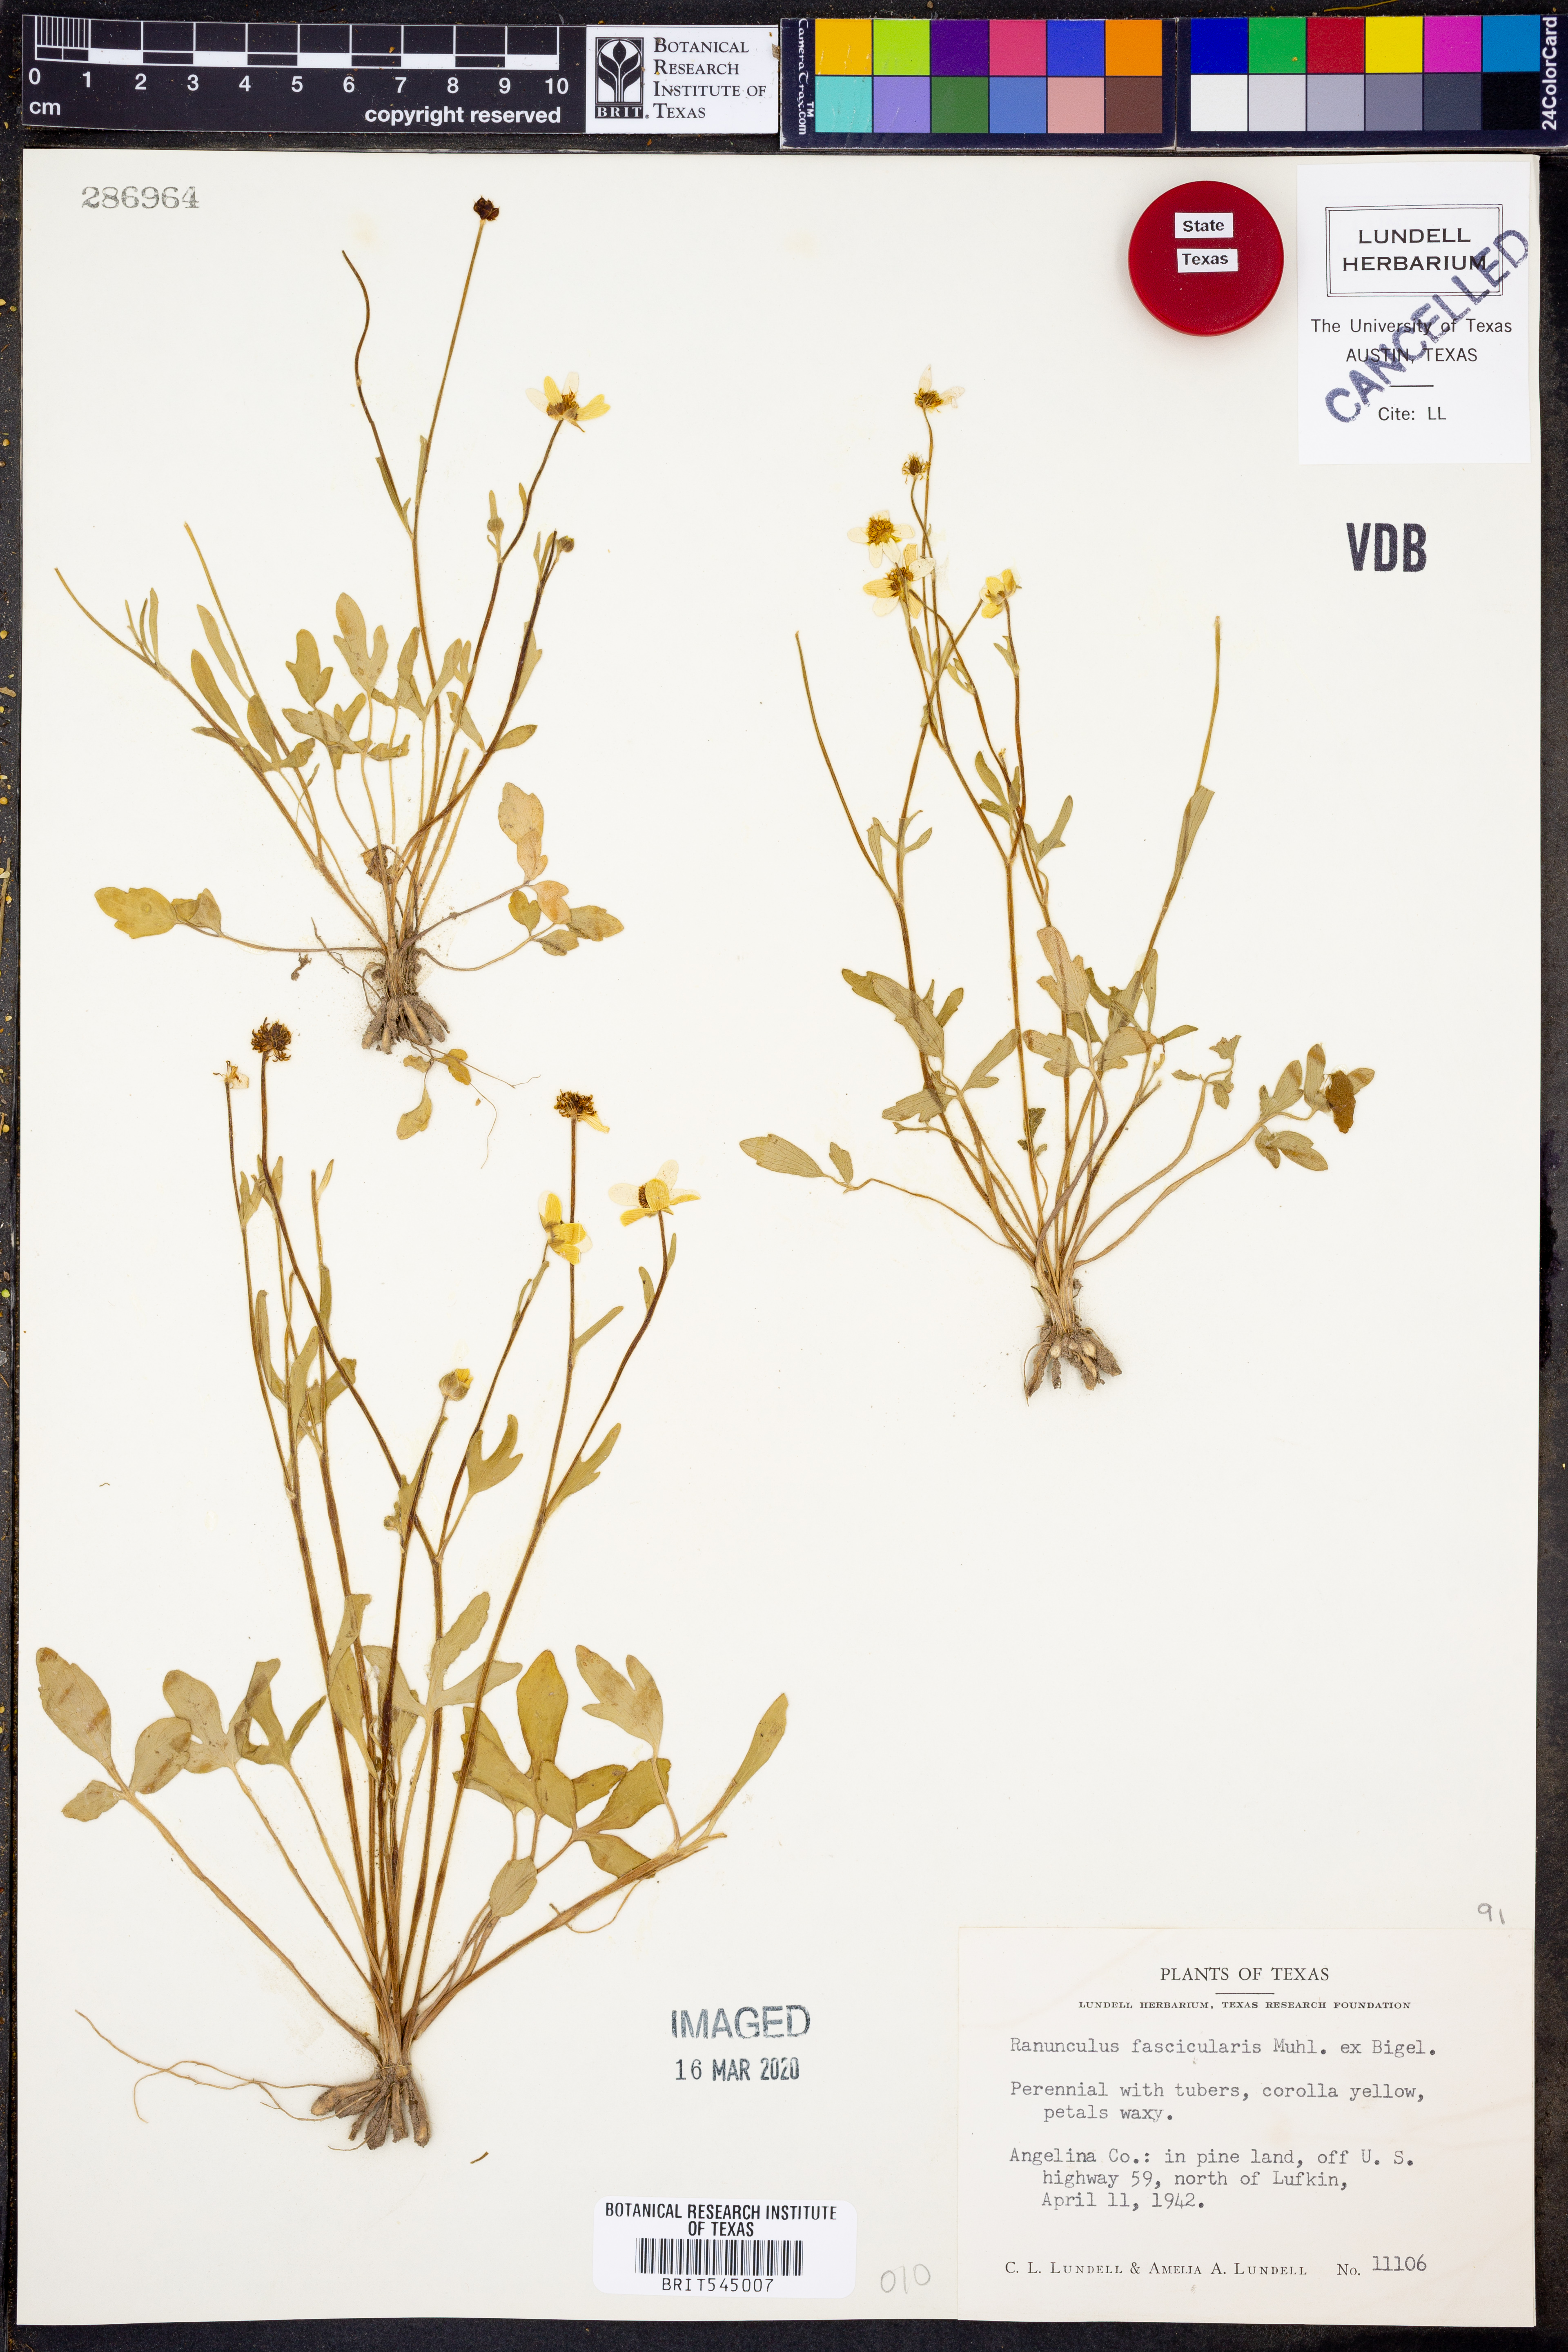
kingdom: Plantae
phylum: Tracheophyta
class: Magnoliopsida
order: Ranunculales
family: Ranunculaceae
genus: Ranunculus
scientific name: Ranunculus fascicularis
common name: Early buttercup
